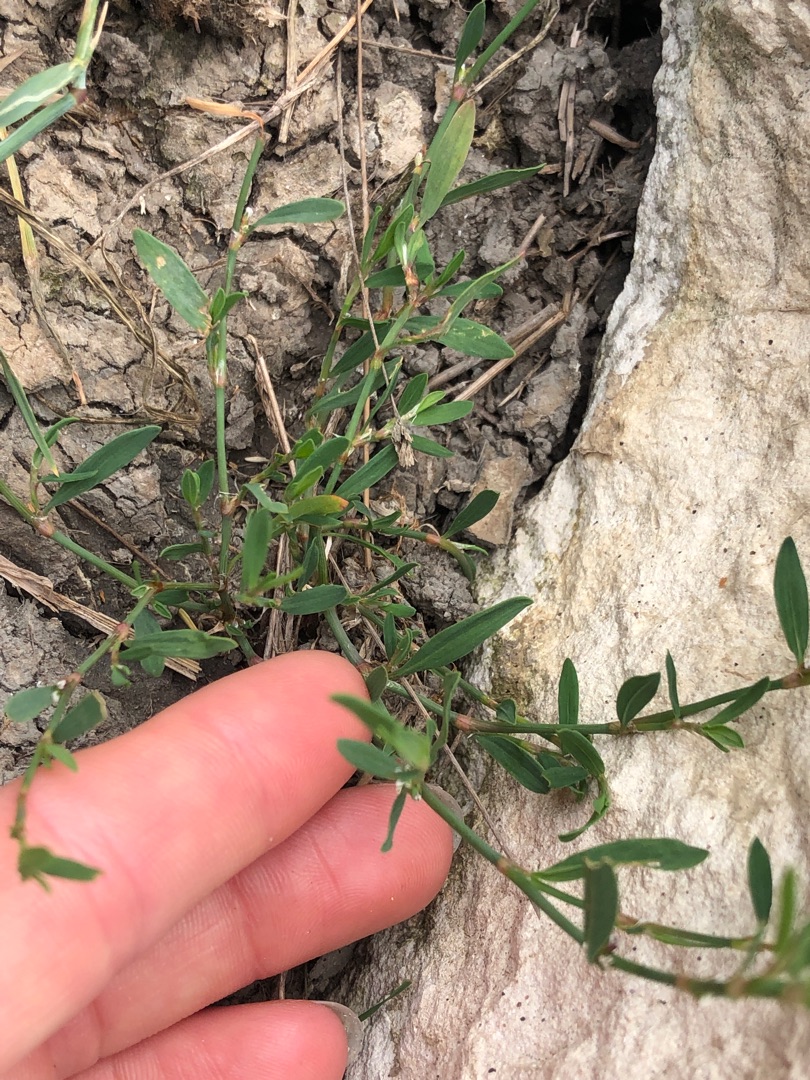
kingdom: Plantae
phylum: Tracheophyta
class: Magnoliopsida
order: Caryophyllales
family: Polygonaceae
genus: Polygonum
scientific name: Polygonum aviculare
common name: Vej-pileurt
